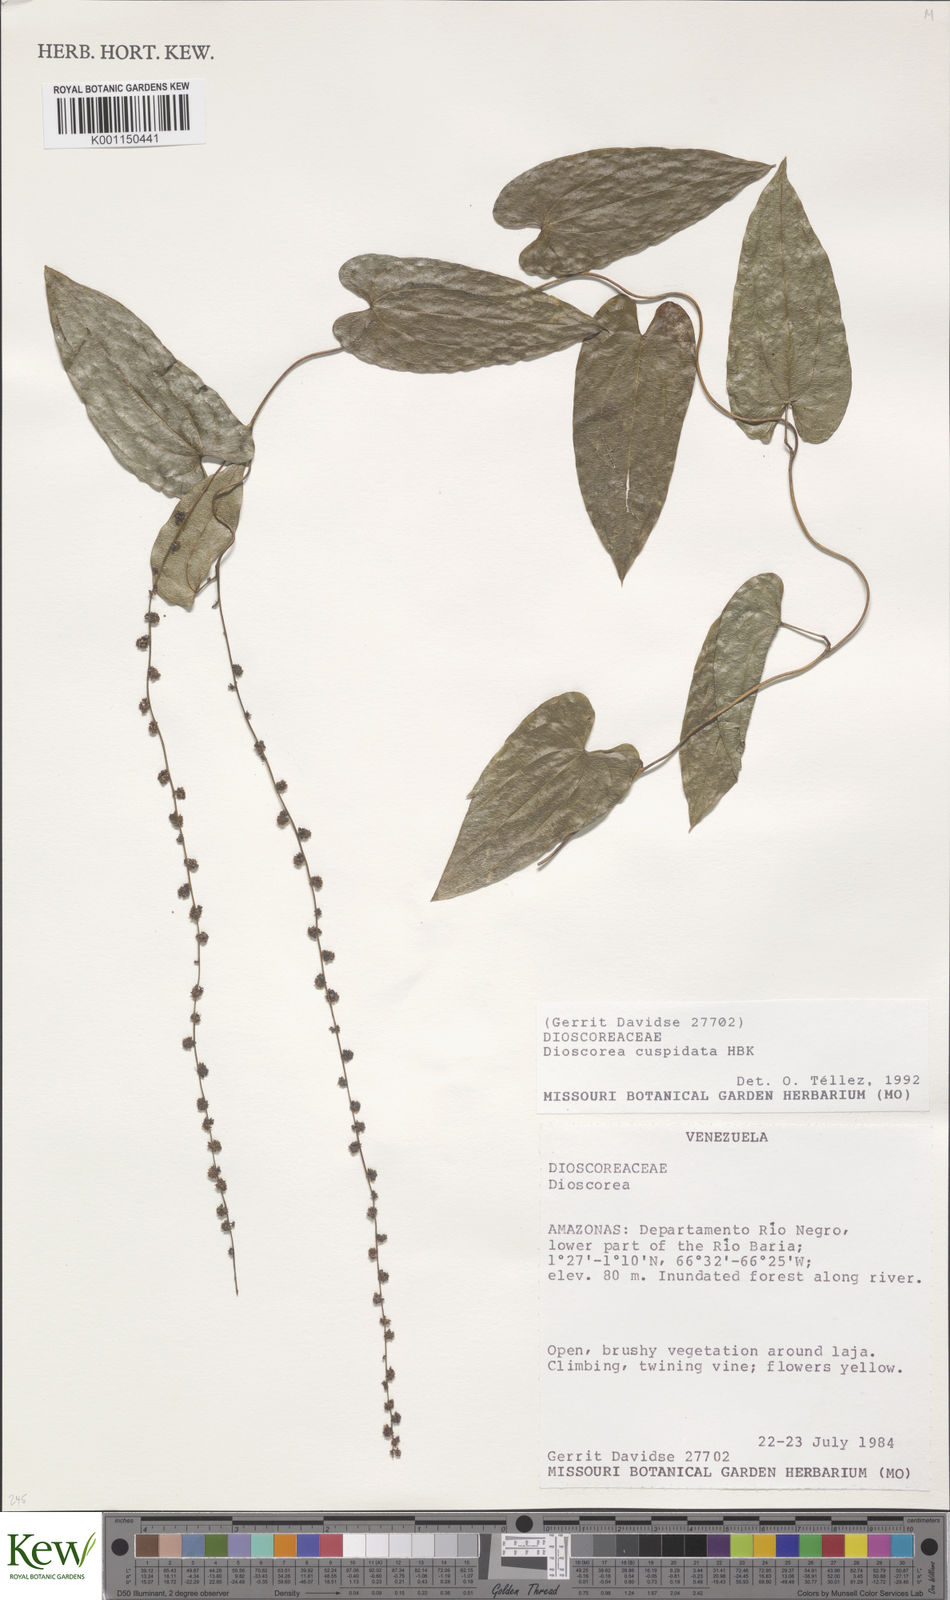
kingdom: Plantae
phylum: Tracheophyta
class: Liliopsida
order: Dioscoreales
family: Dioscoreaceae
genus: Dioscorea
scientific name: Dioscorea cuspidata
